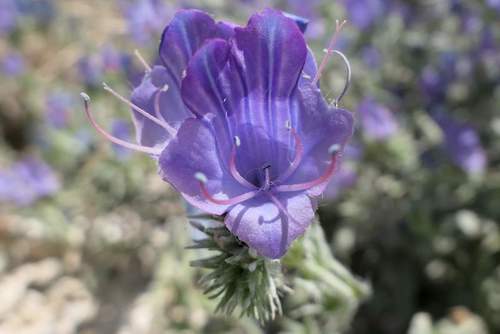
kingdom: Plantae
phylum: Tracheophyta
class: Magnoliopsida
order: Boraginales
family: Boraginaceae
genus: Echium
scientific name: Echium plantagineum
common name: Purple viper's-bugloss
